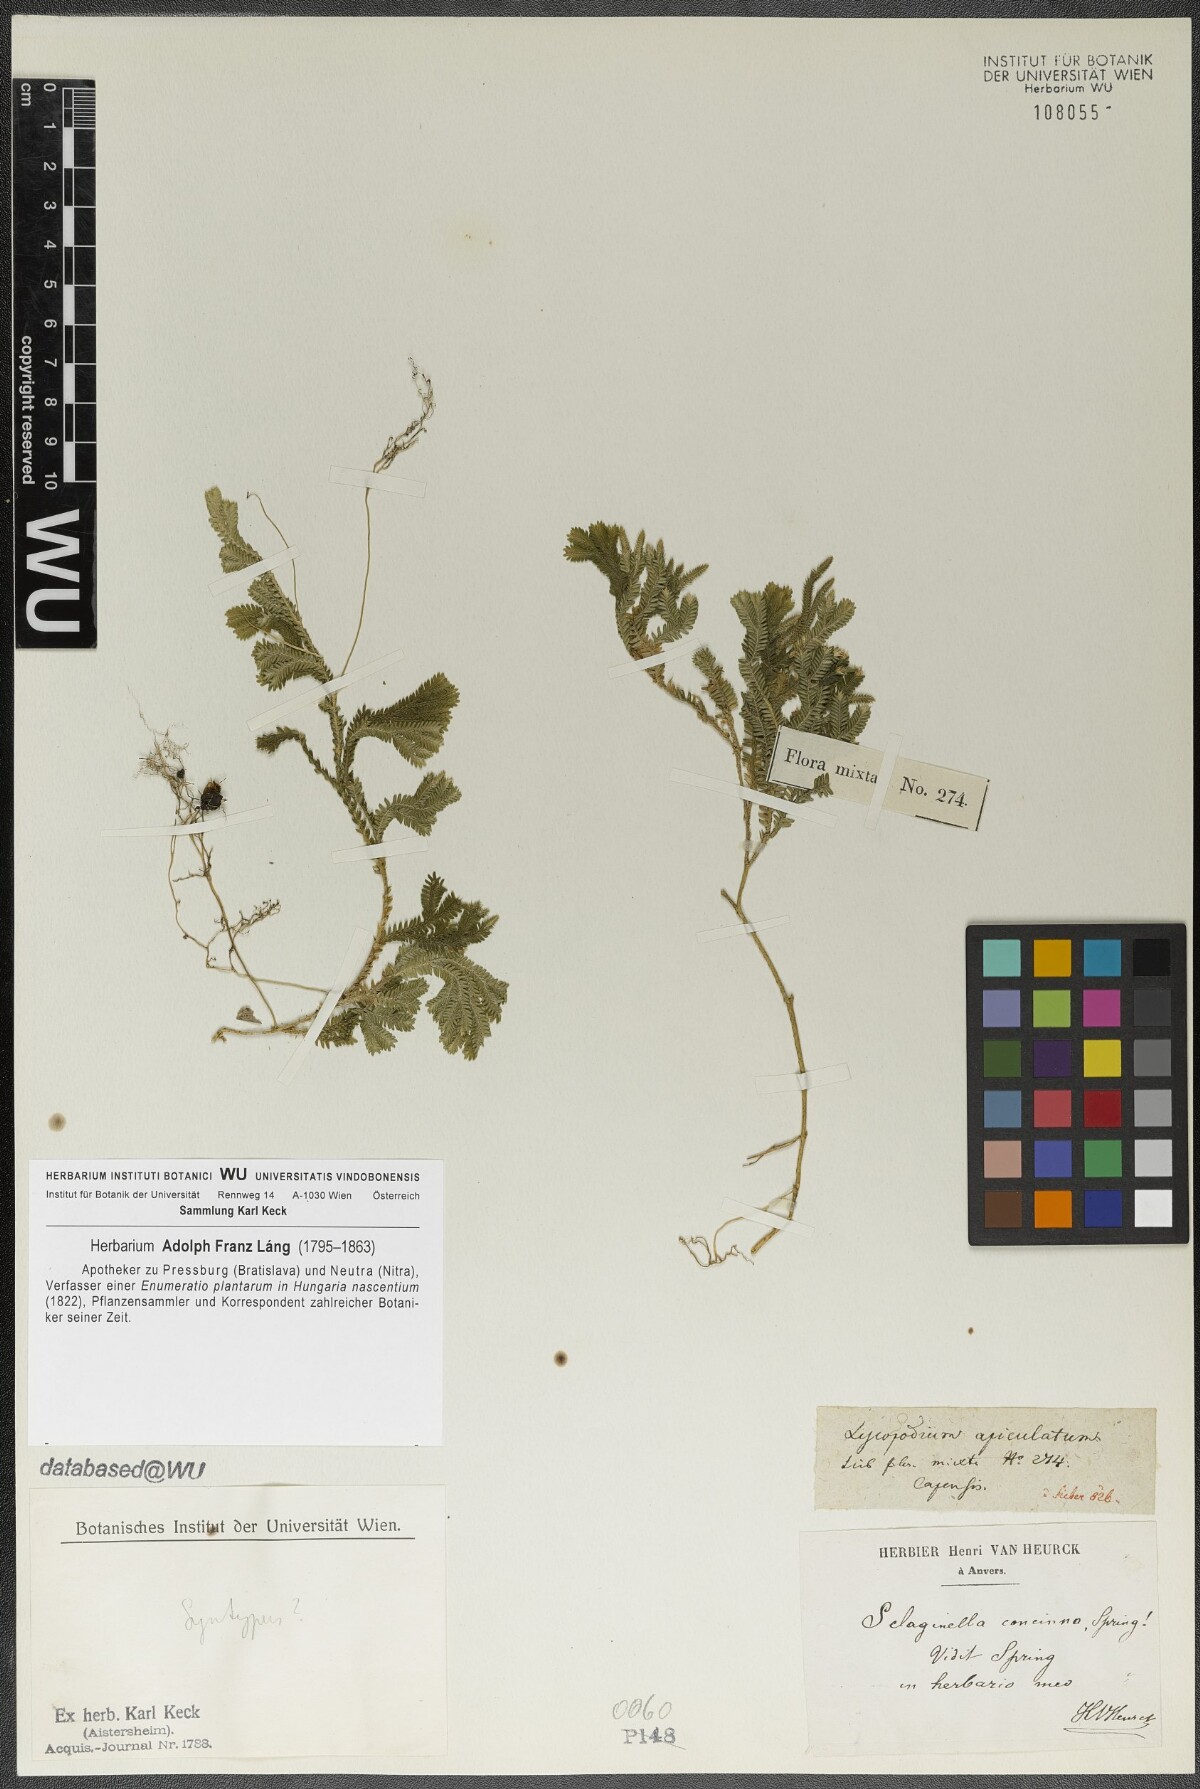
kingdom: Plantae
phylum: Tracheophyta
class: Lycopodiopsida
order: Selaginellales
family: Selaginellaceae
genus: Selaginella
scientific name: Selaginella concinna
